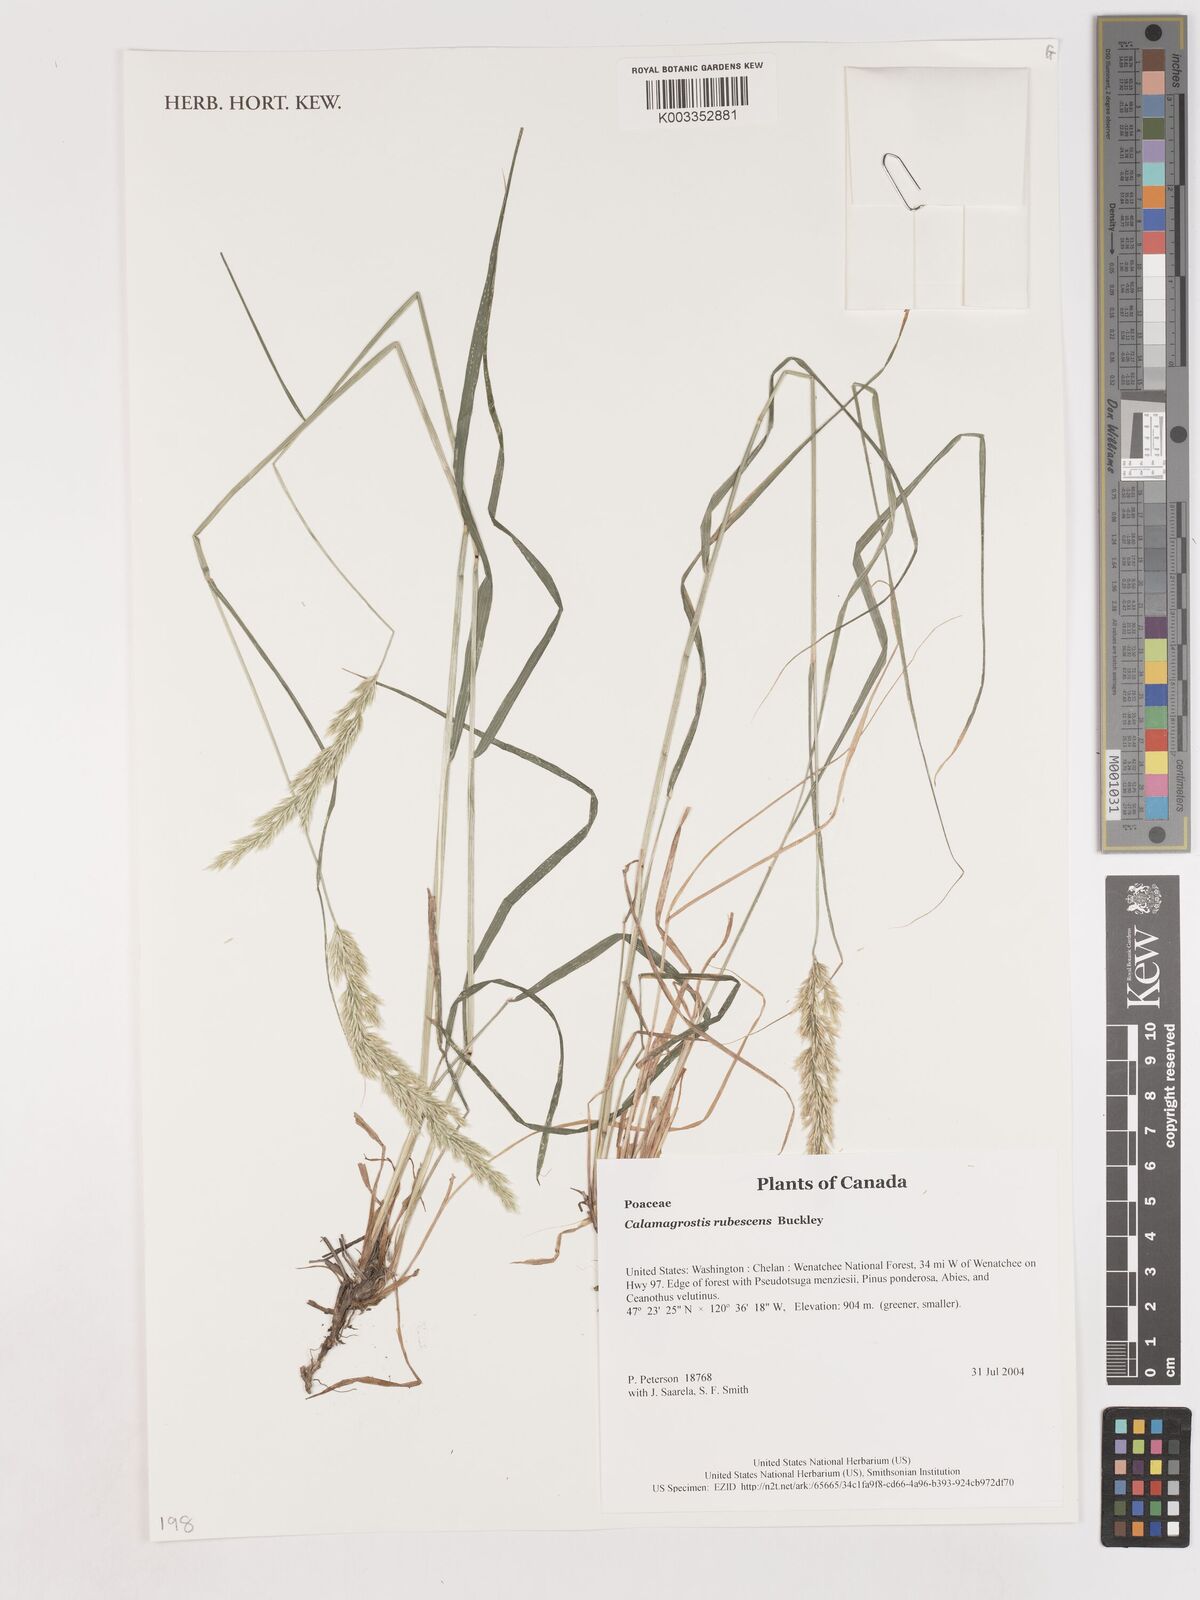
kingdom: Plantae
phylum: Tracheophyta
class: Liliopsida
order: Poales
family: Poaceae
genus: Calamagrostis
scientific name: Calamagrostis rubescens
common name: Pine grass
